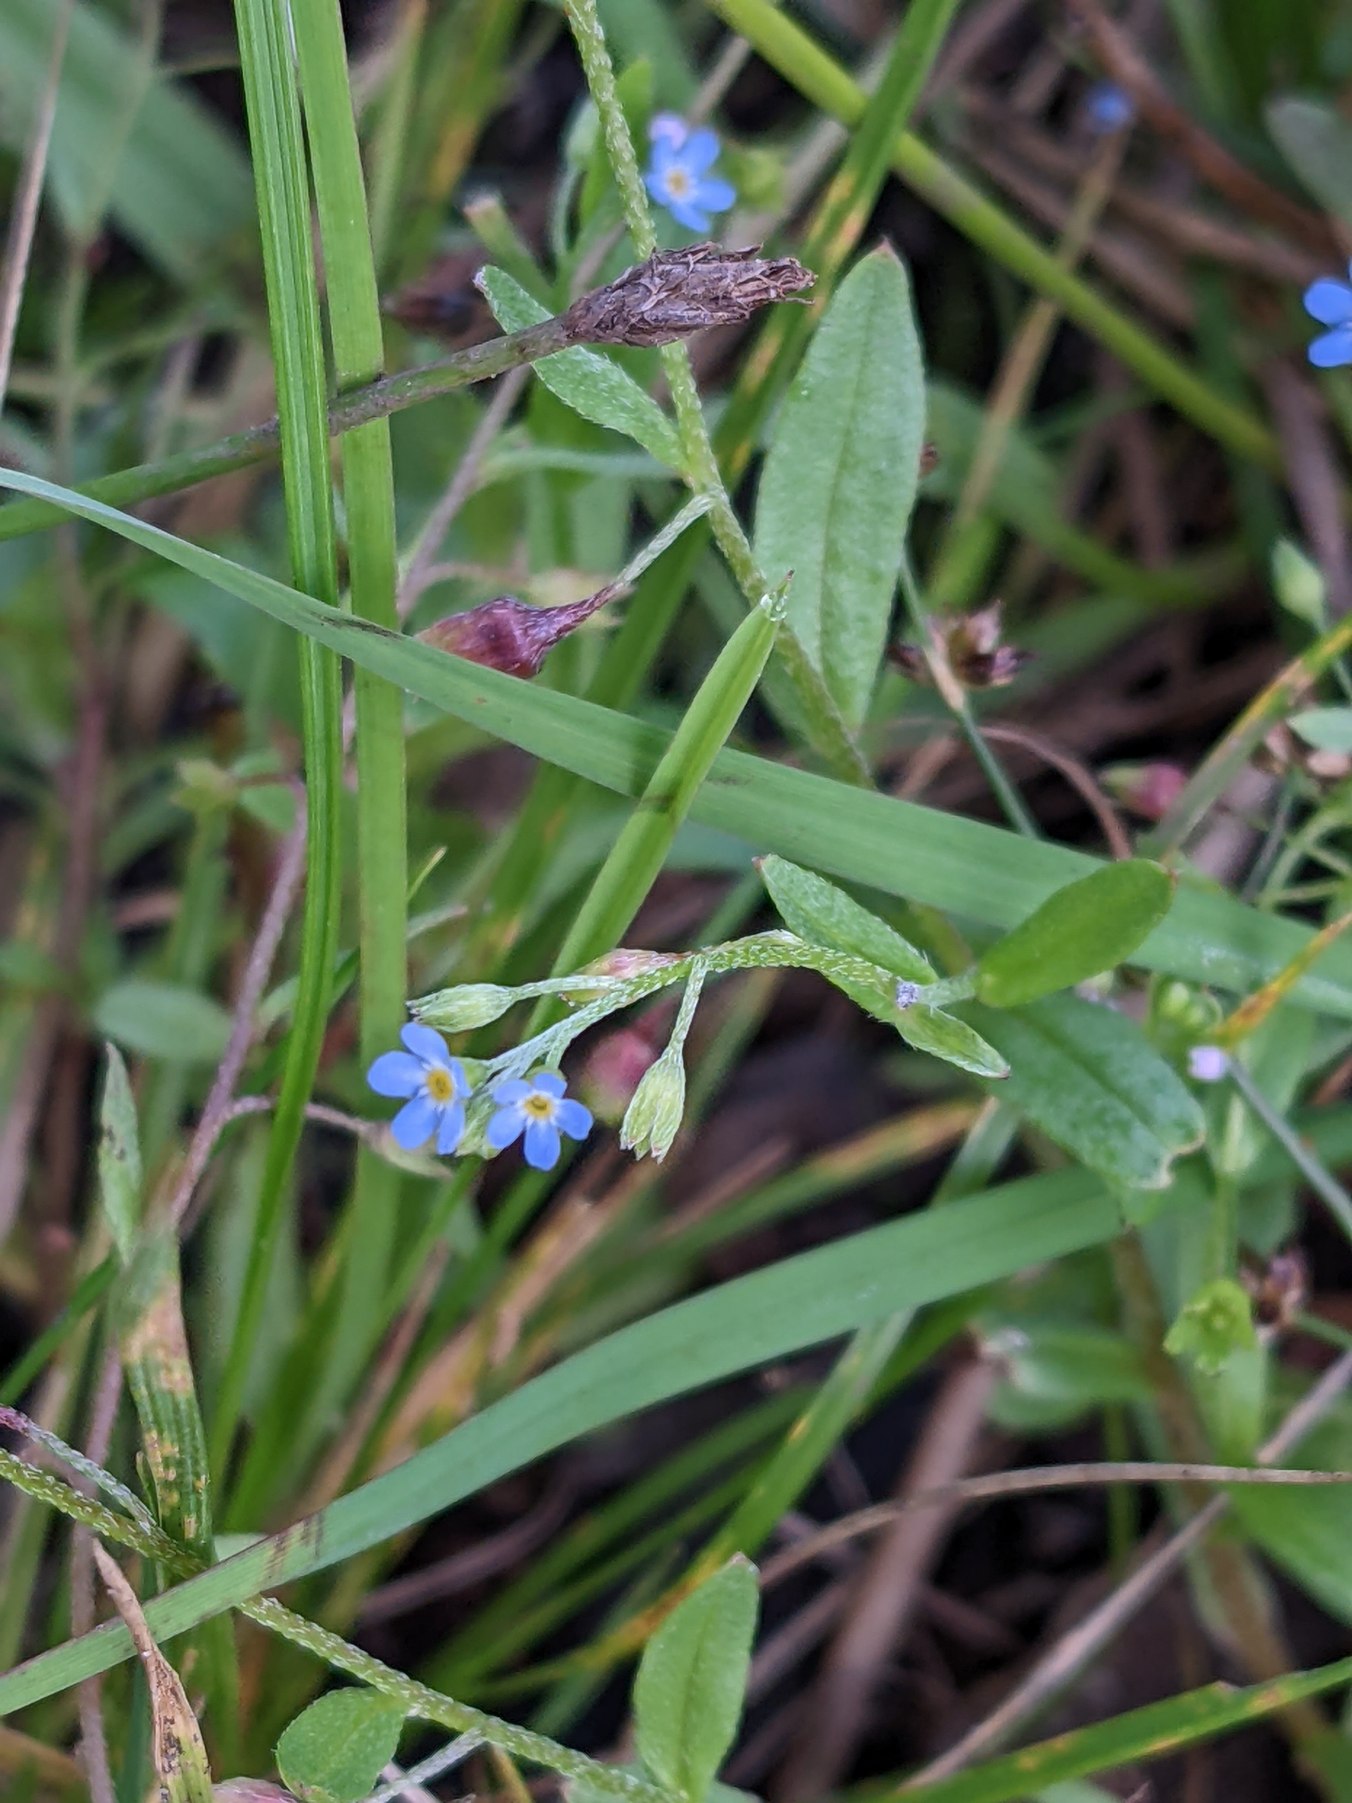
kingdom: Plantae
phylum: Tracheophyta
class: Magnoliopsida
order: Boraginales
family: Boraginaceae
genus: Myosotis
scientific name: Myosotis arvensis
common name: Mark-forglemmigej
